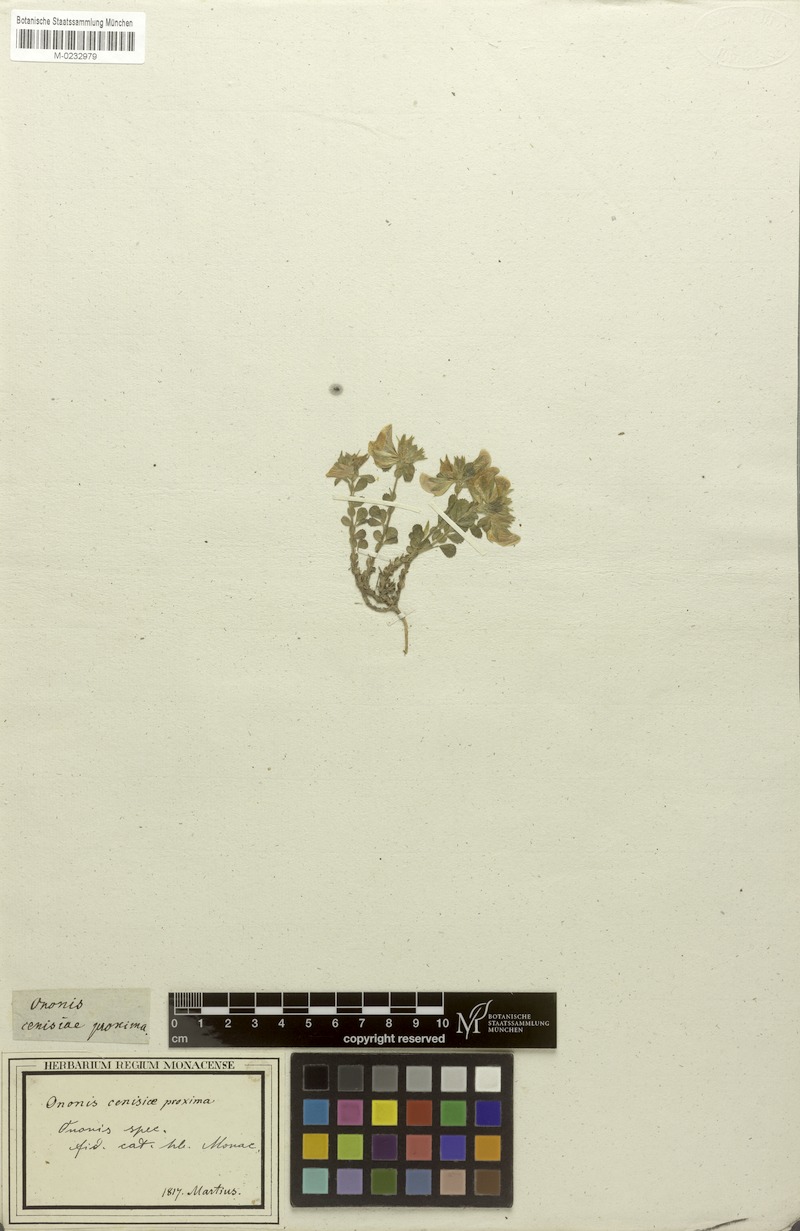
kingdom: Plantae
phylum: Tracheophyta
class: Magnoliopsida
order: Fabales
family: Fabaceae
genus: Ononis
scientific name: Ononis spinosa
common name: Spiny restharrow
